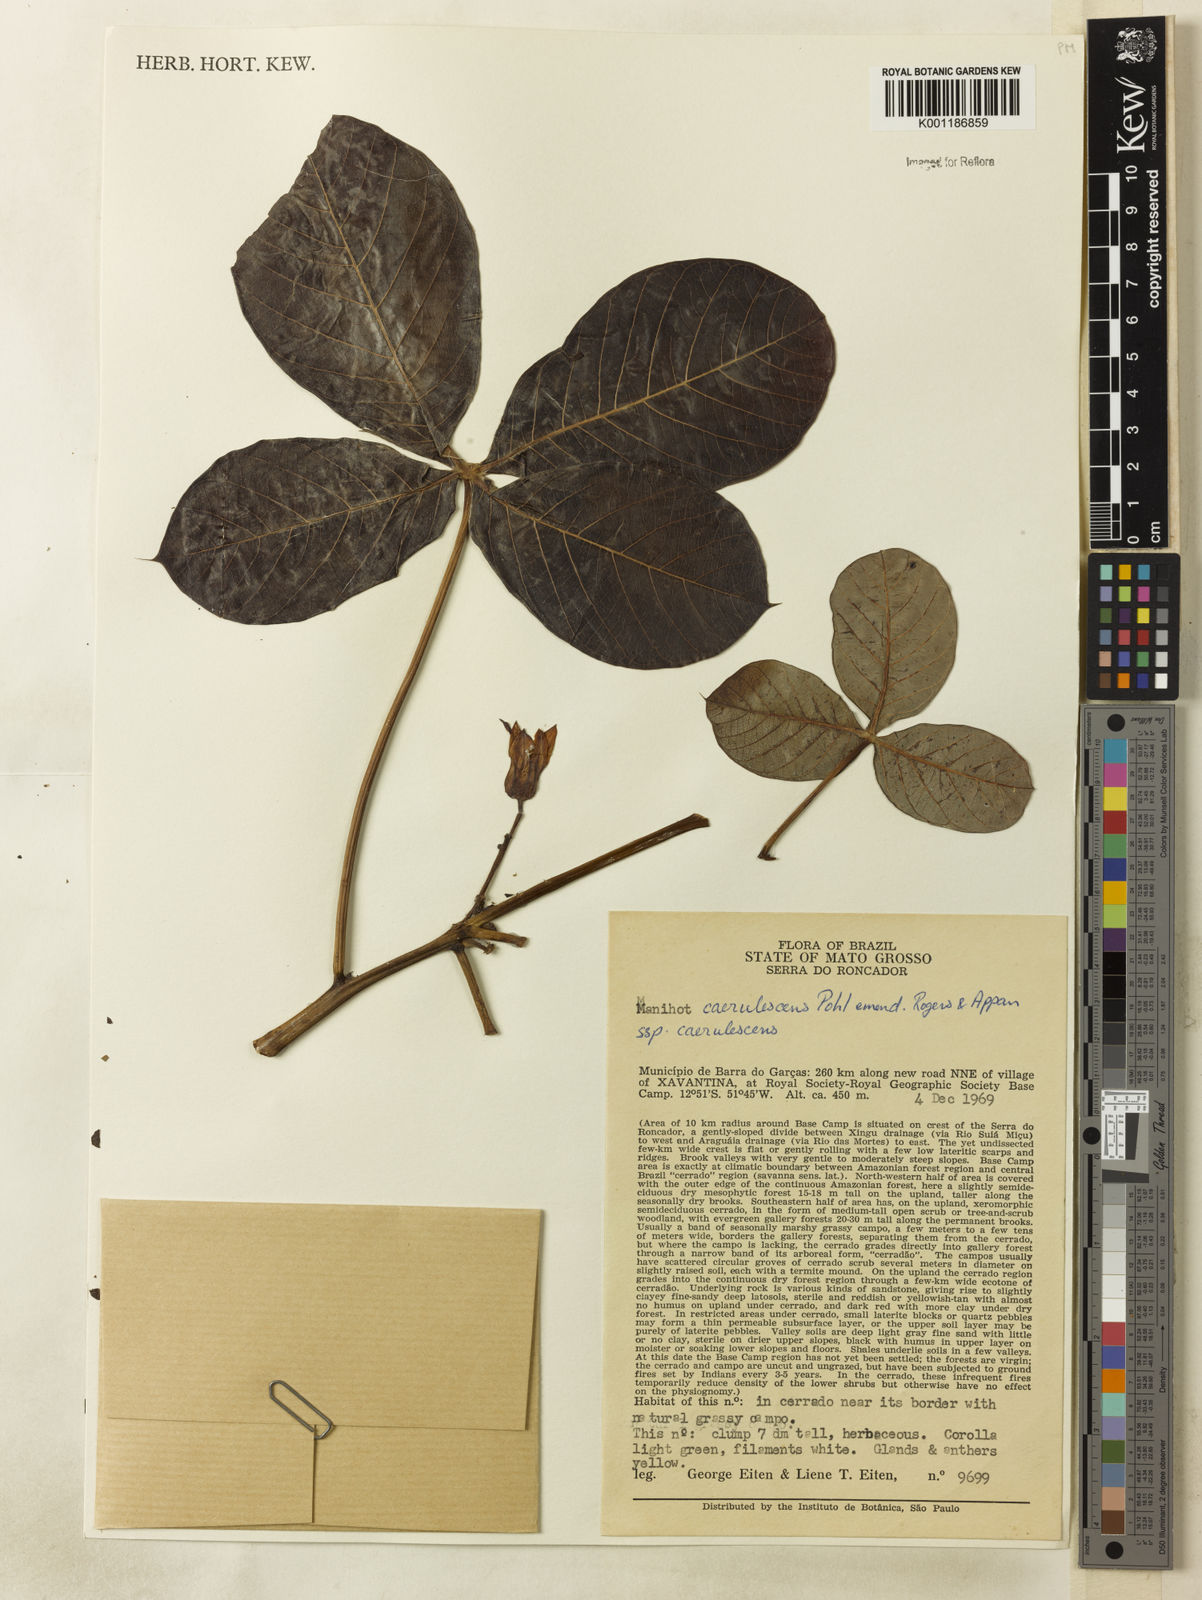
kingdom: Plantae
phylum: Tracheophyta
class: Magnoliopsida
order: Malpighiales
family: Euphorbiaceae
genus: Manihot
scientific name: Manihot caerulescens
